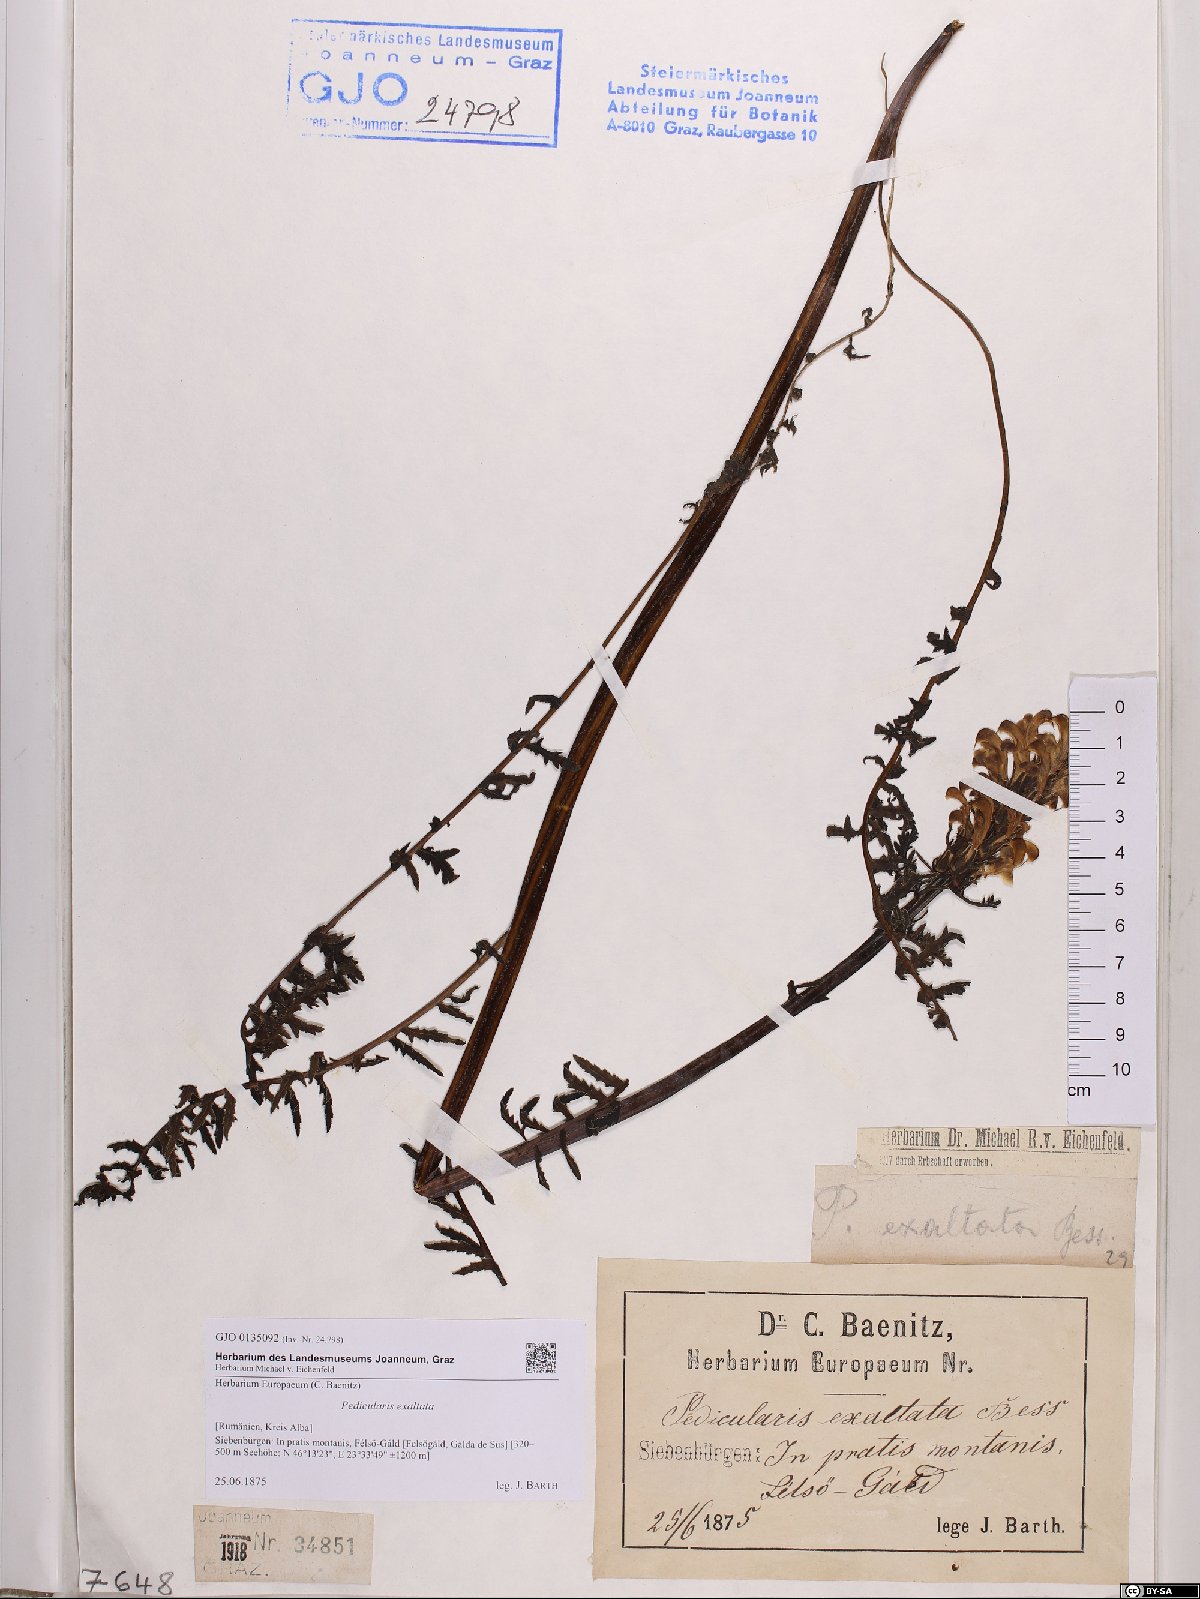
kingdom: Plantae
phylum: Tracheophyta
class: Magnoliopsida
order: Lamiales
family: Orobanchaceae
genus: Pedicularis
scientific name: Pedicularis exaltata
